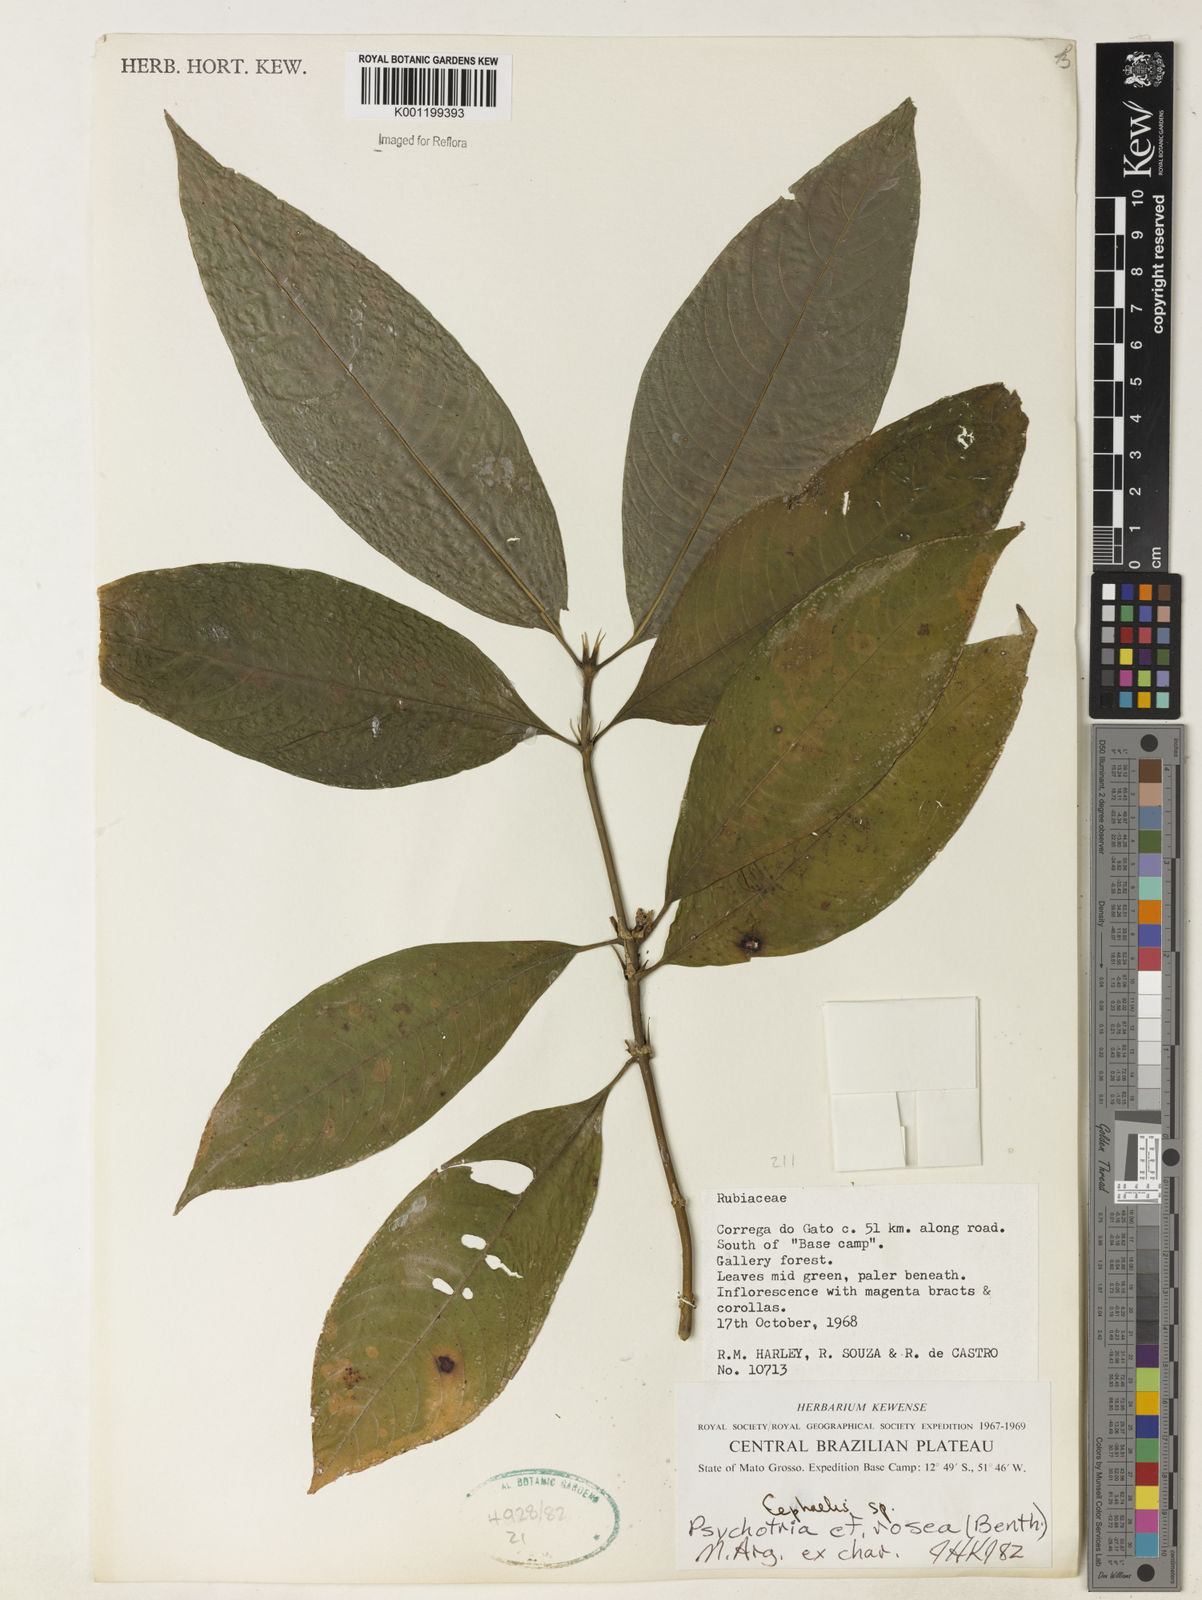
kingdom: Plantae
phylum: Tracheophyta
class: Magnoliopsida
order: Gentianales
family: Rubiaceae
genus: Psychotria
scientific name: Psychotria
